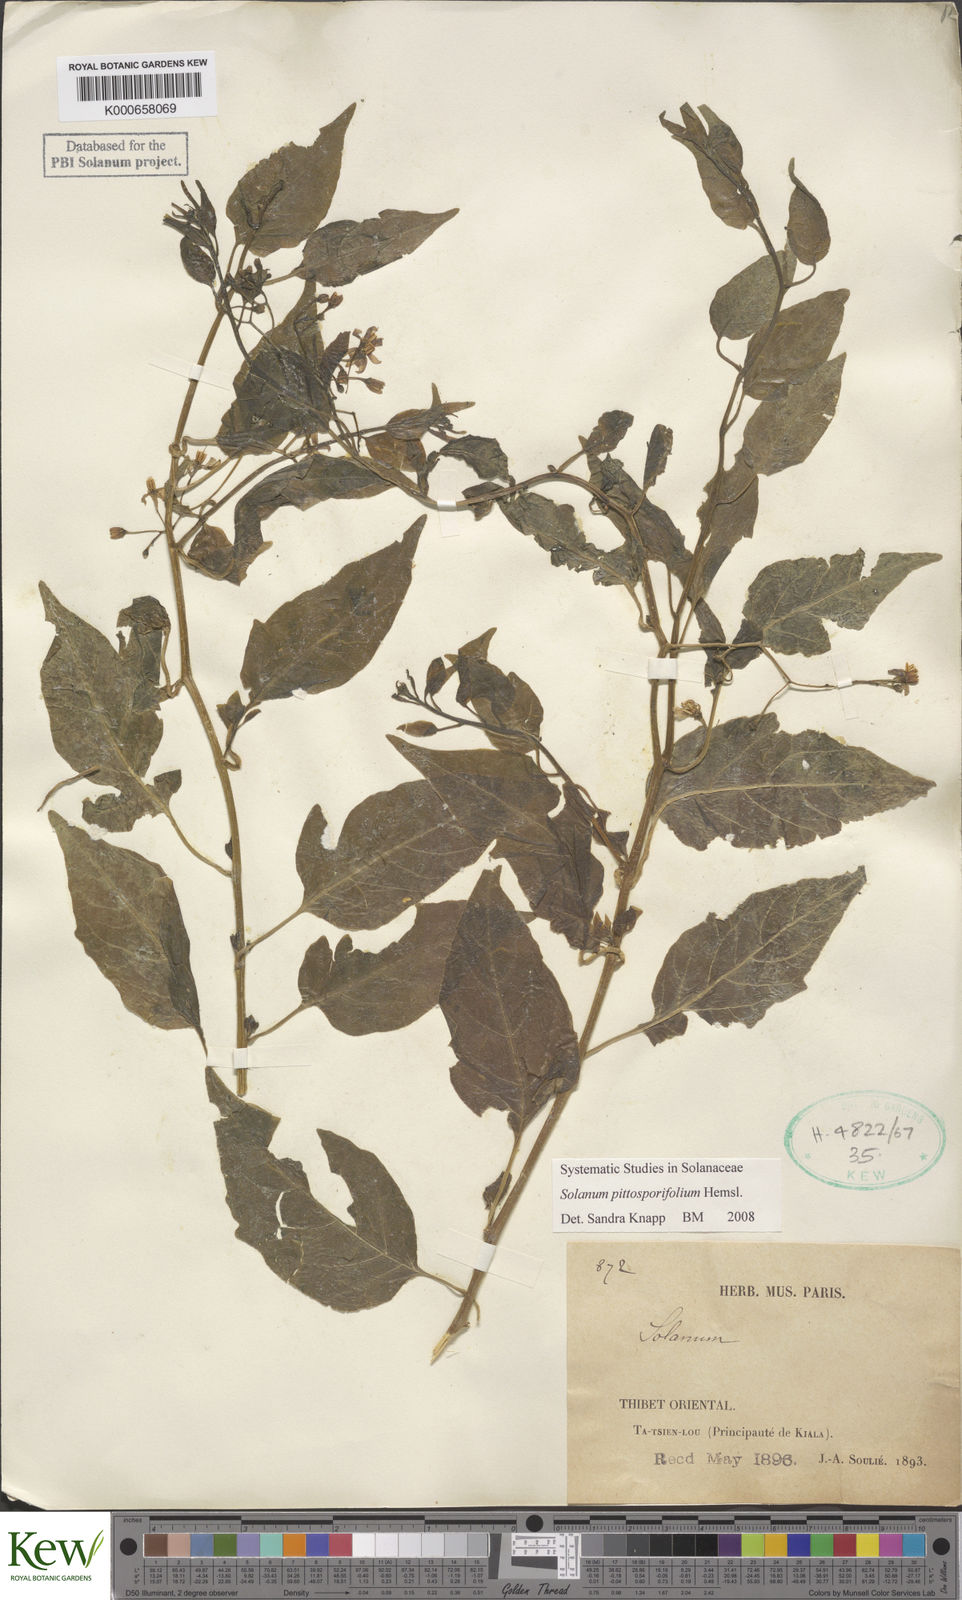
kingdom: Plantae
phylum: Tracheophyta
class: Magnoliopsida
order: Solanales
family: Solanaceae
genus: Solanum
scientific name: Solanum septemlobum
